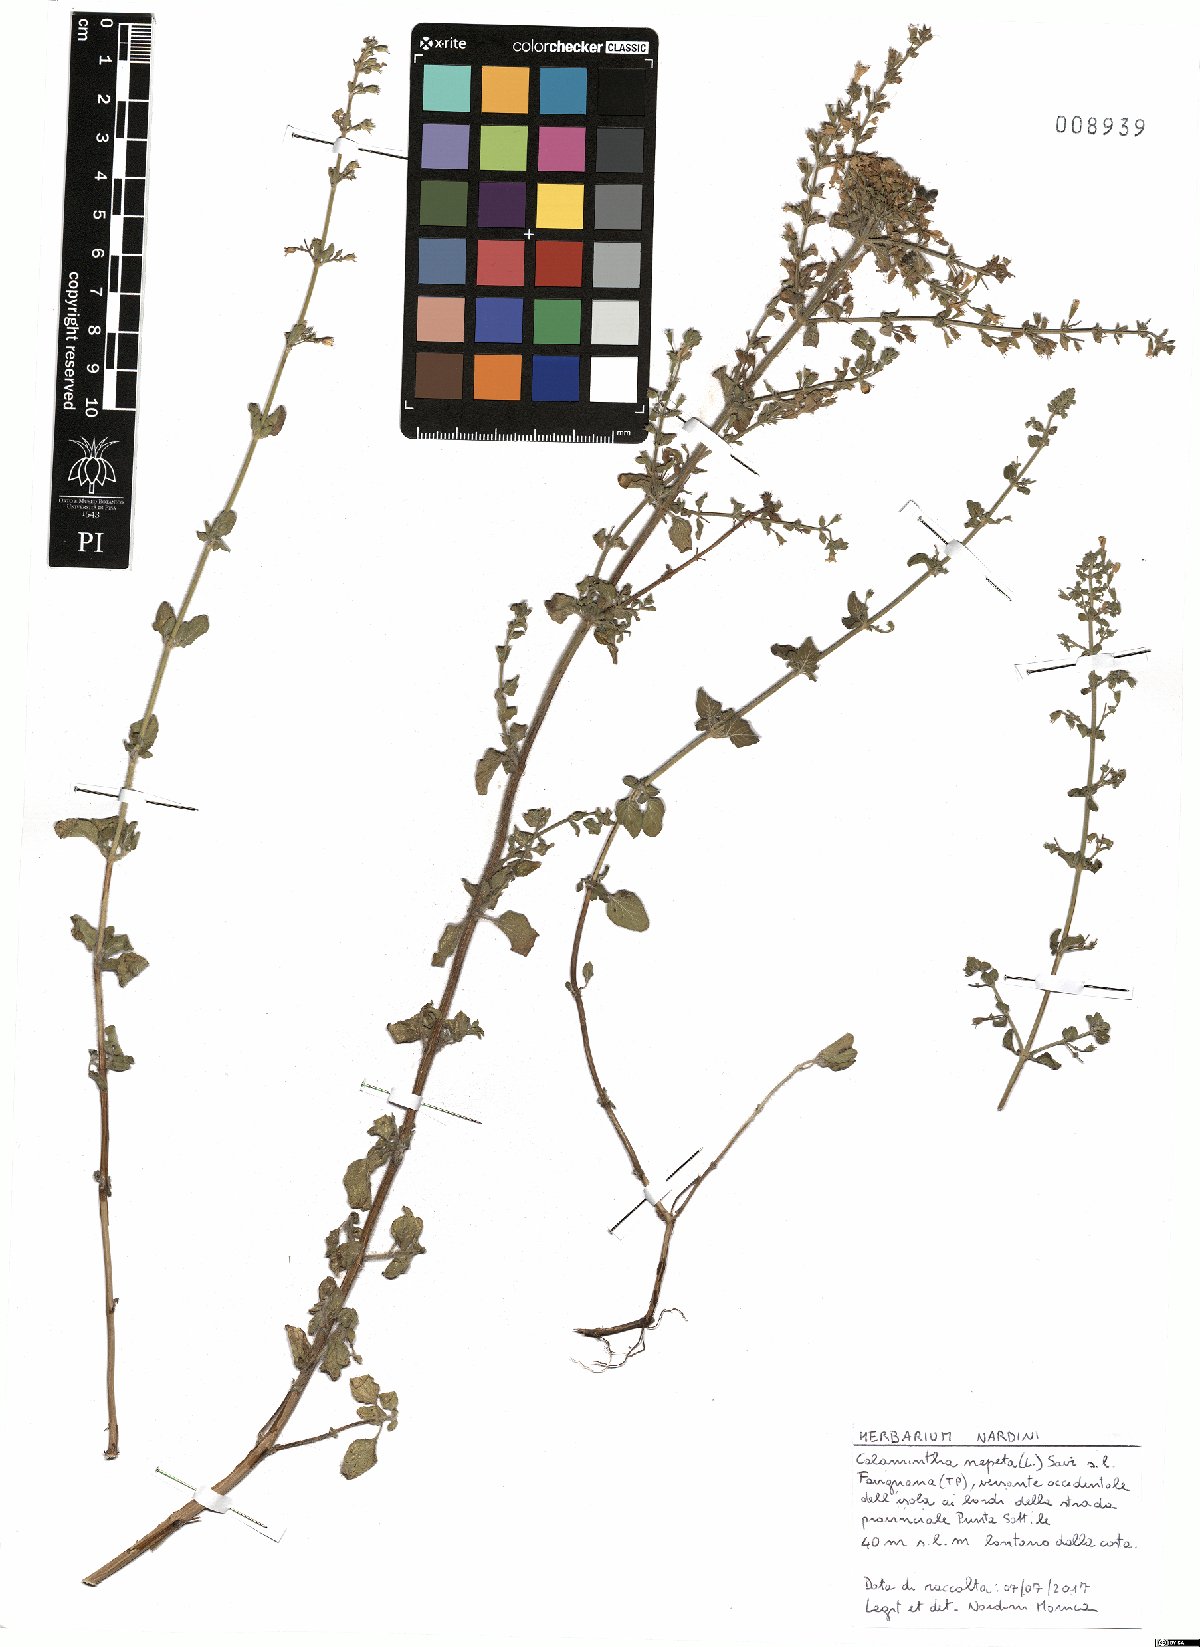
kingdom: Plantae
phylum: Tracheophyta
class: Magnoliopsida
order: Lamiales
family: Lamiaceae
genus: Clinopodium
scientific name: Clinopodium nepeta
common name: Lesser calamint
